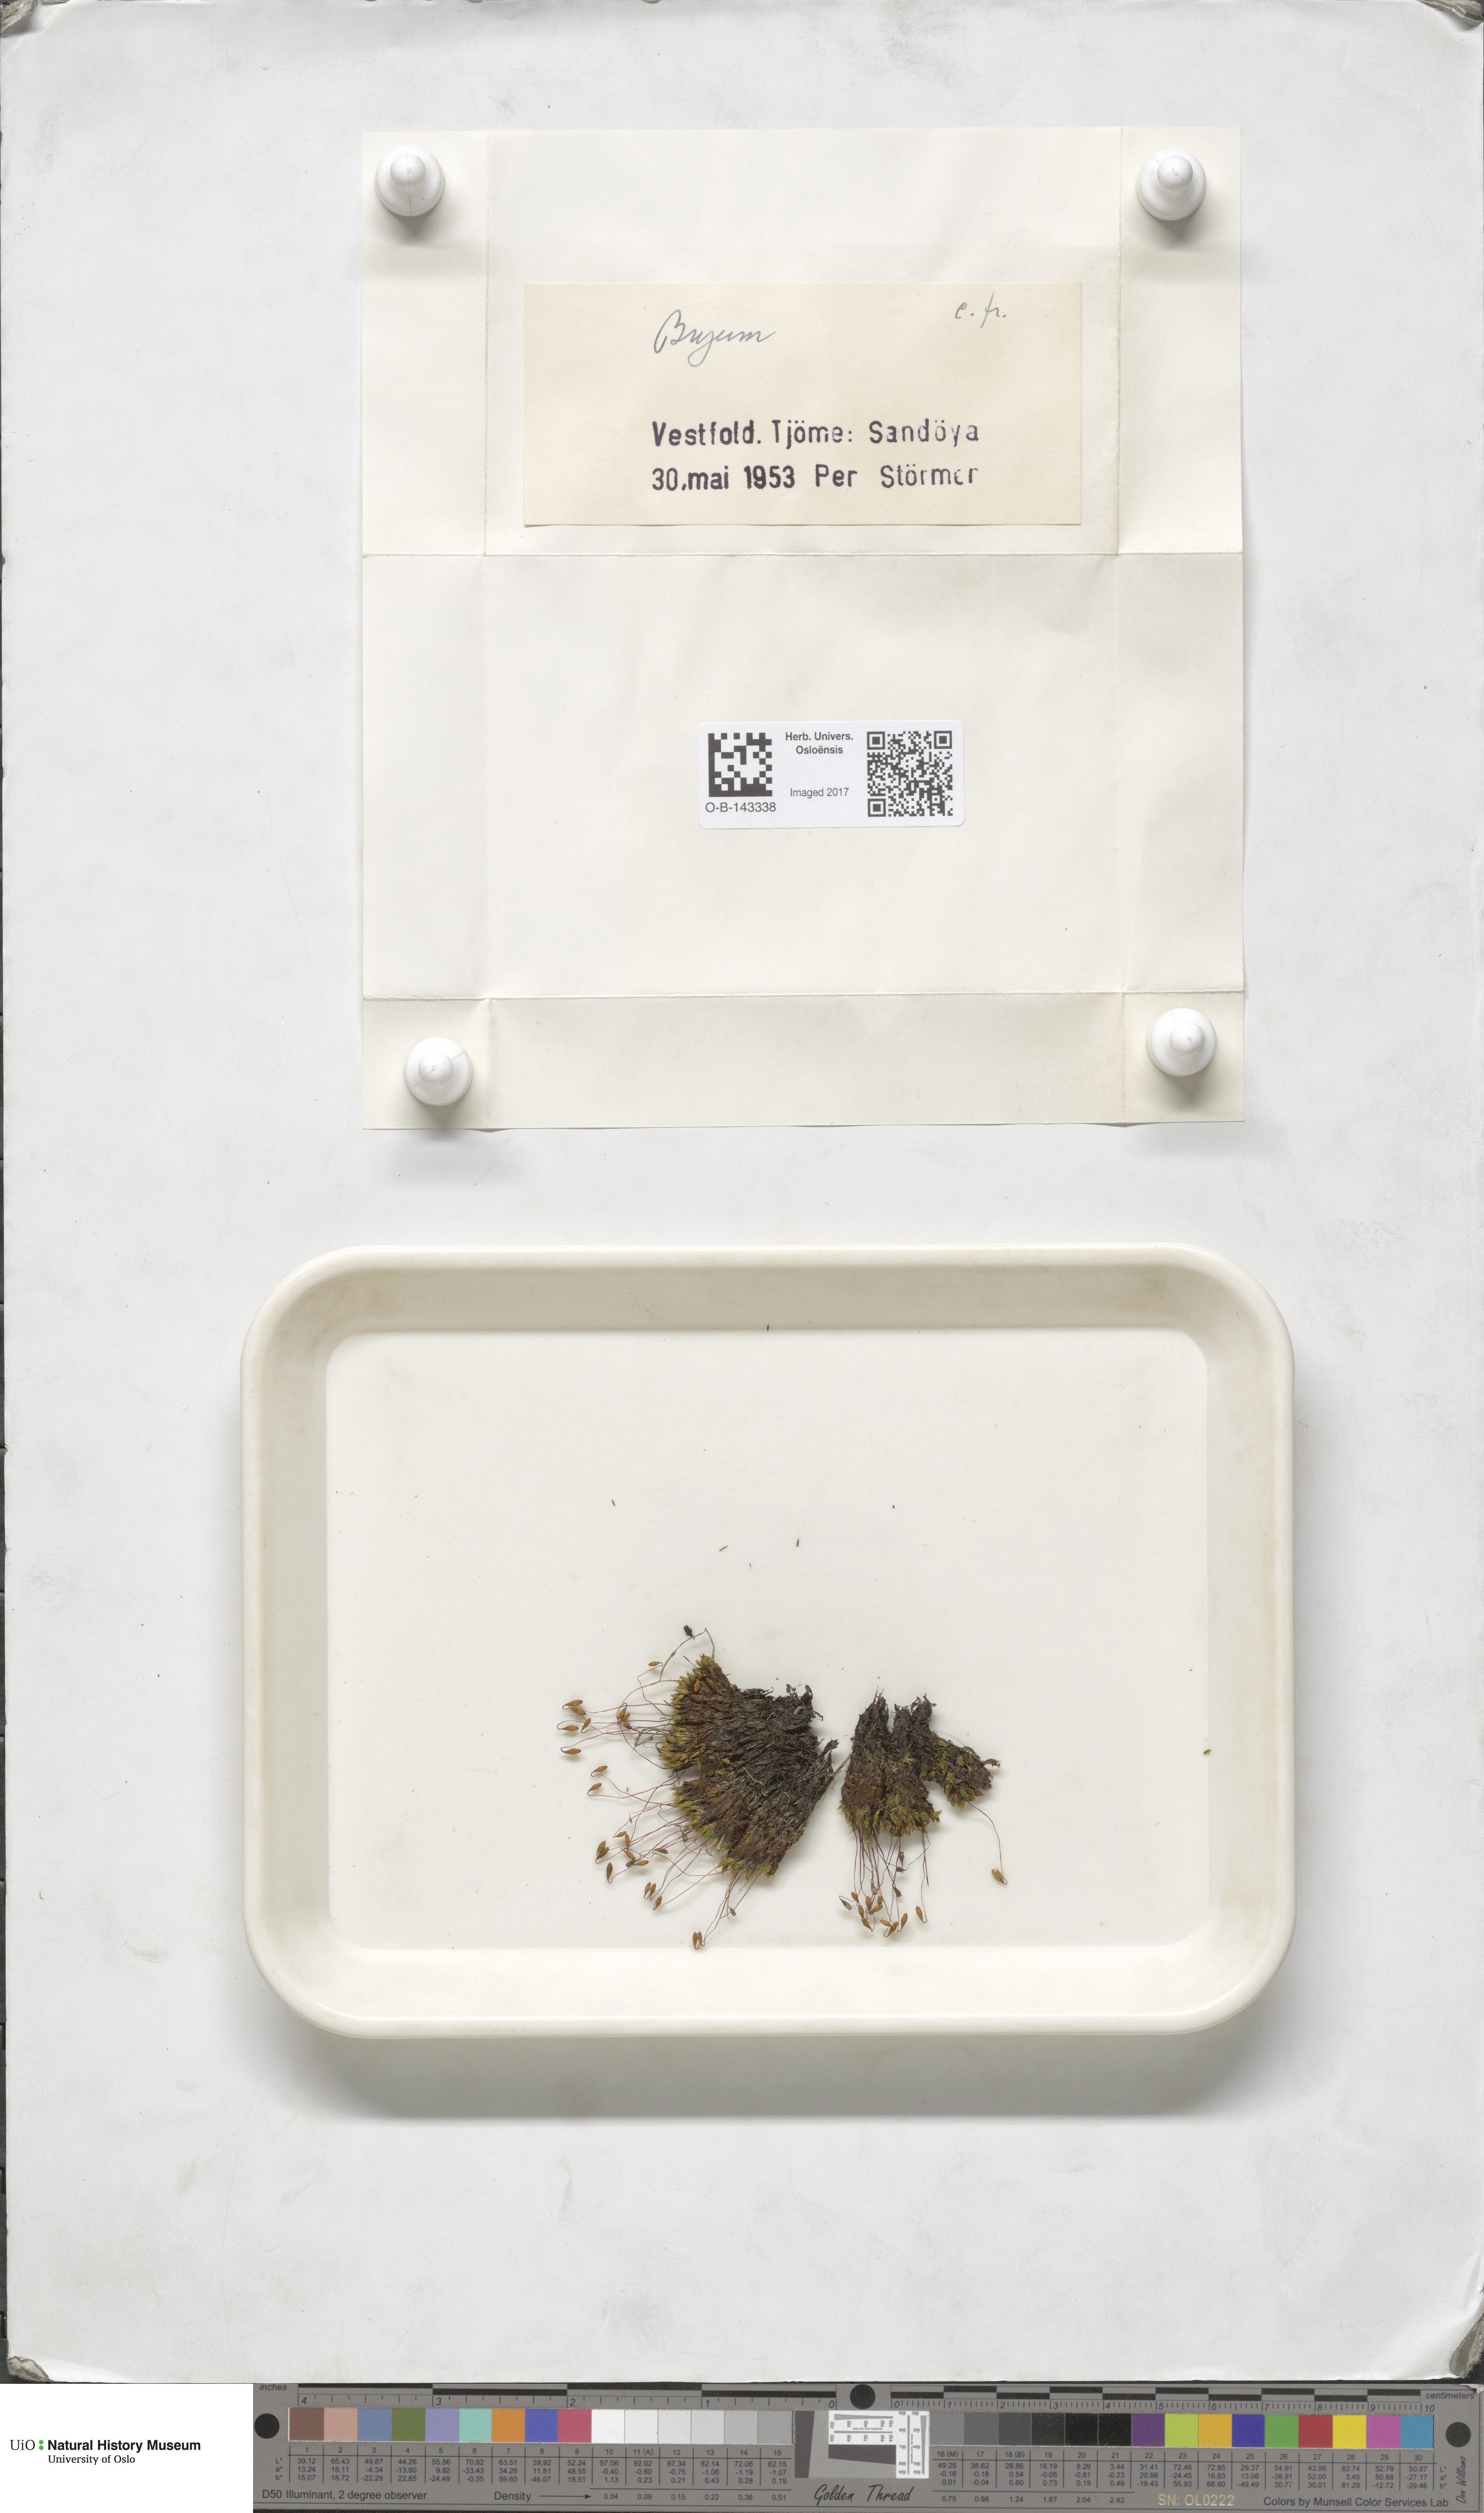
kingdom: Plantae
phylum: Bryophyta
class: Bryopsida
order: Bryales
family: Bryaceae
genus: Bryum
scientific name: Bryum
